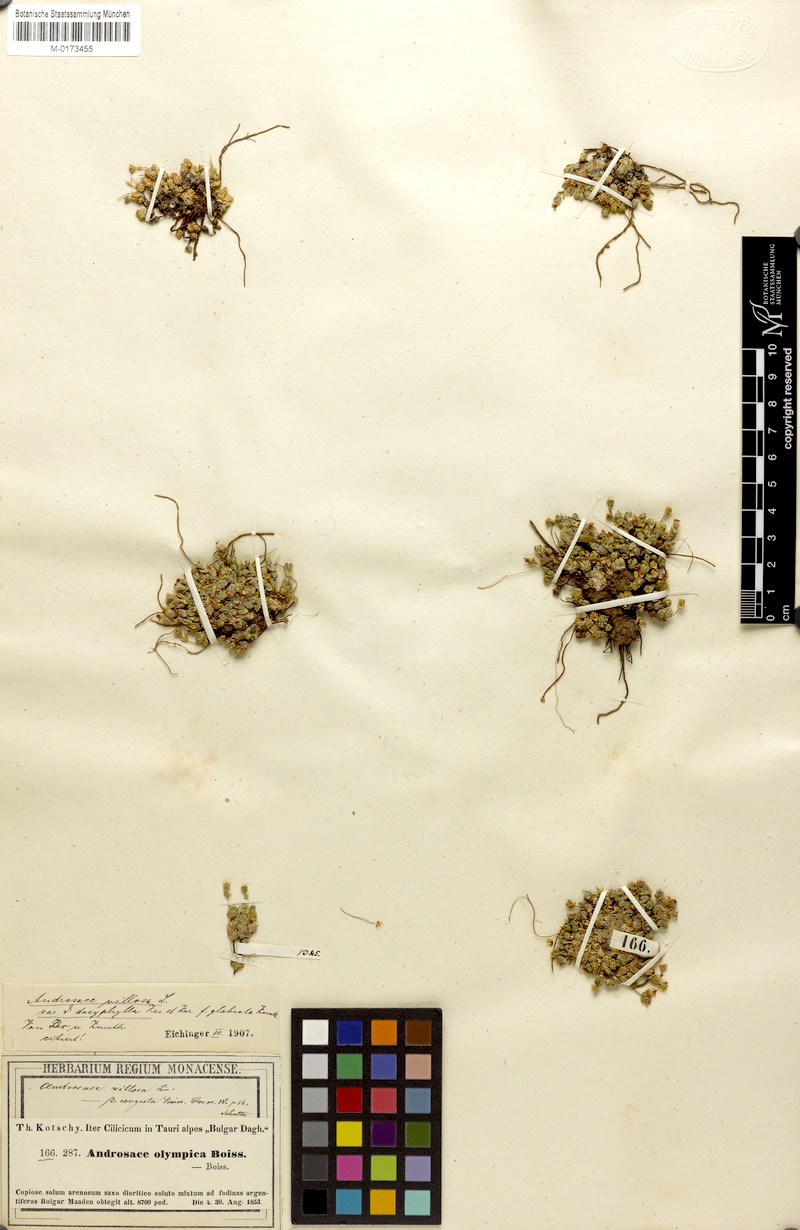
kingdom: Plantae
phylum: Tracheophyta
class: Magnoliopsida
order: Ericales
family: Primulaceae
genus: Androsace
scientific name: Androsace villosa
